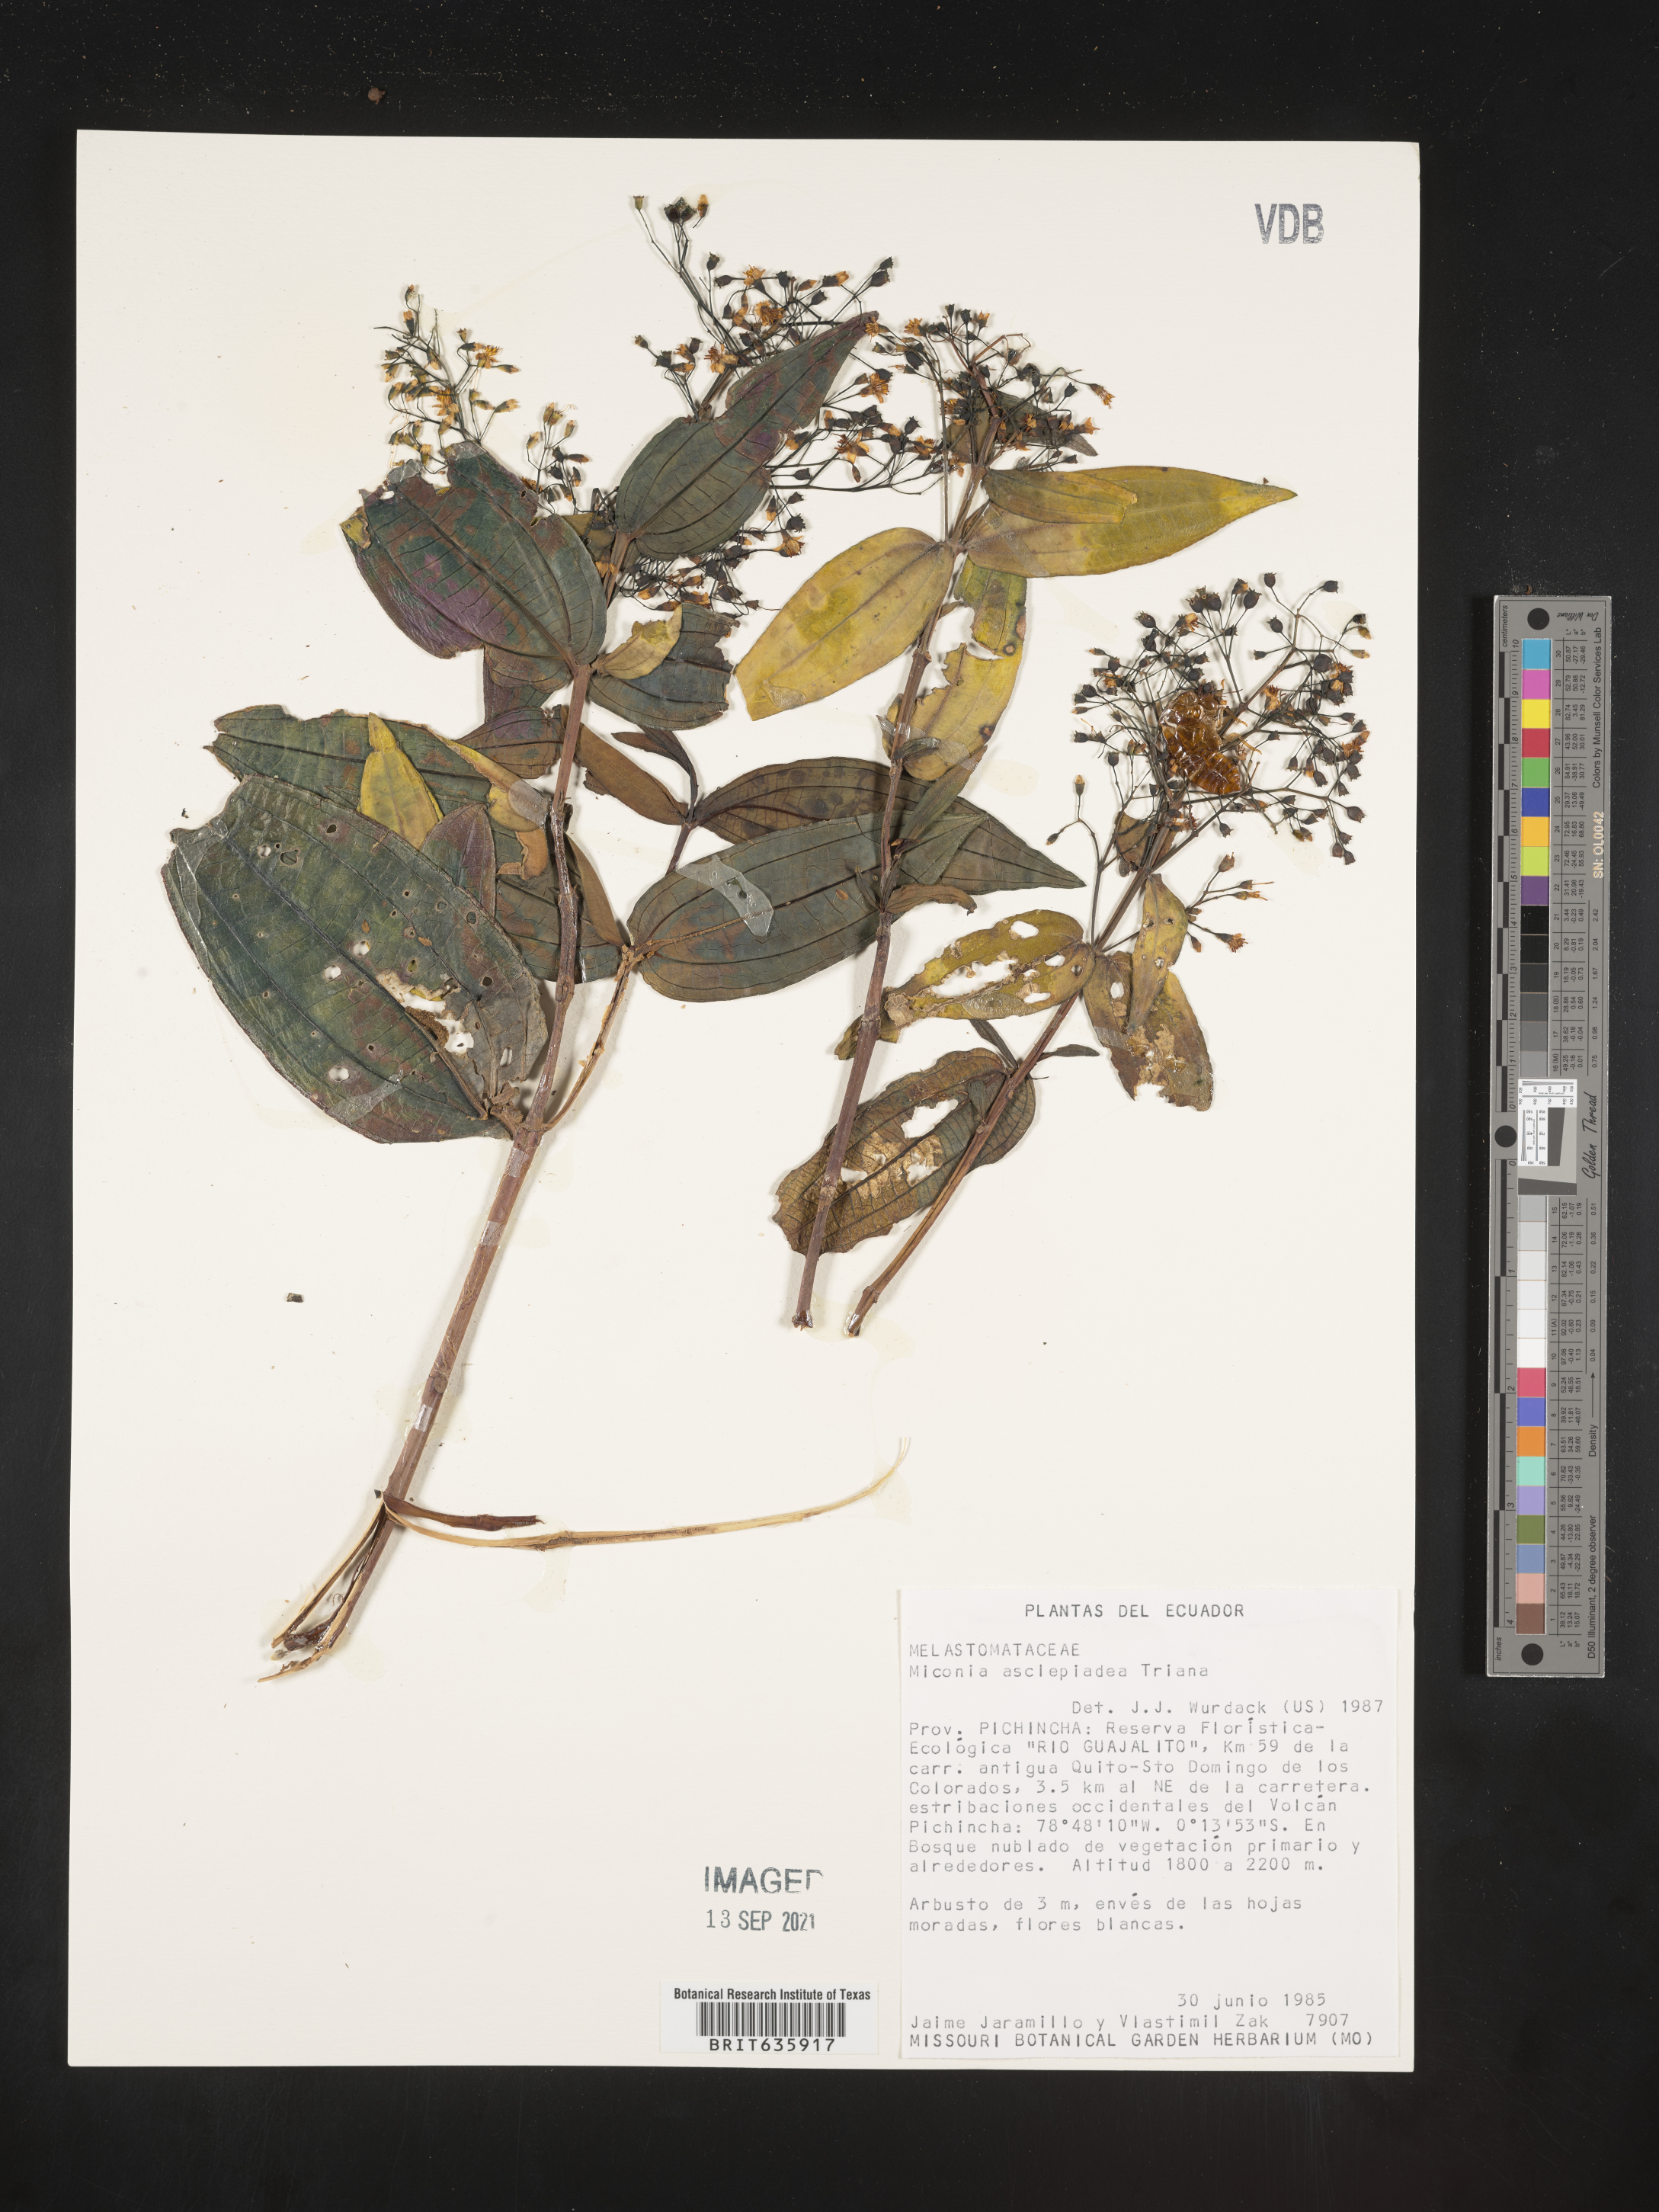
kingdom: Plantae
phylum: Tracheophyta
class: Magnoliopsida
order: Myrtales
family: Melastomataceae
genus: Miconia
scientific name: Miconia
